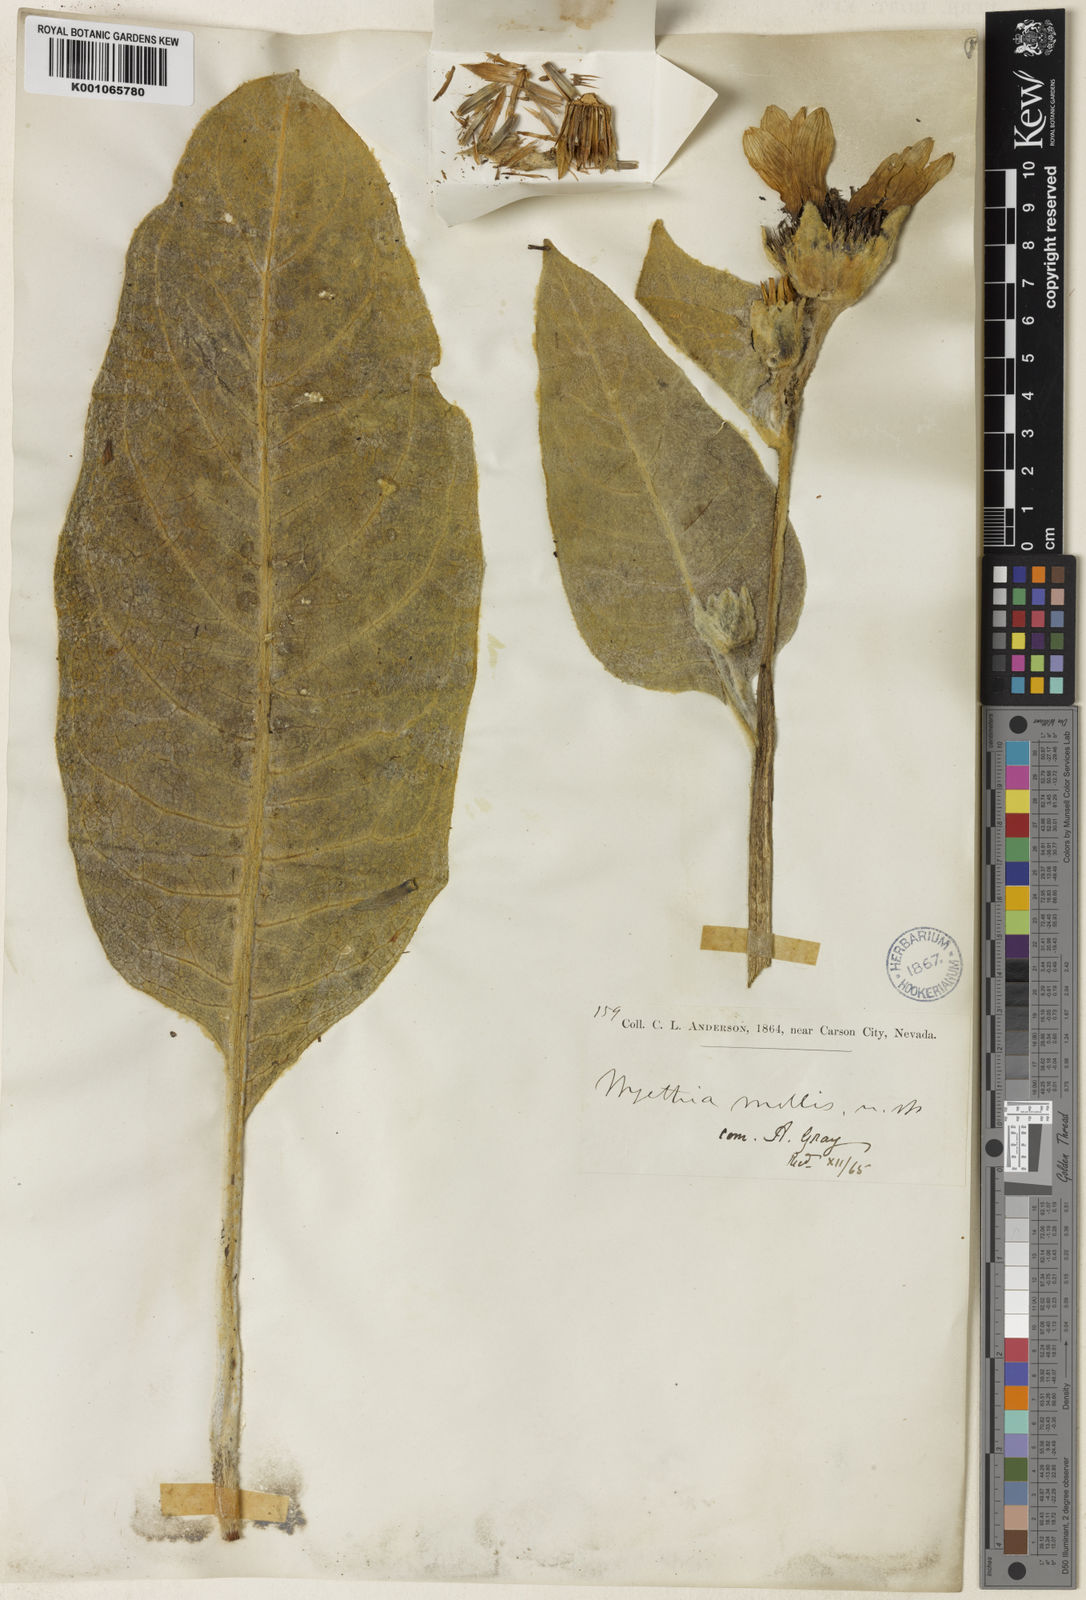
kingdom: Plantae
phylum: Tracheophyta
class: Magnoliopsida
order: Asterales
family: Asteraceae
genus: Wyethia
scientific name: Wyethia mollis
